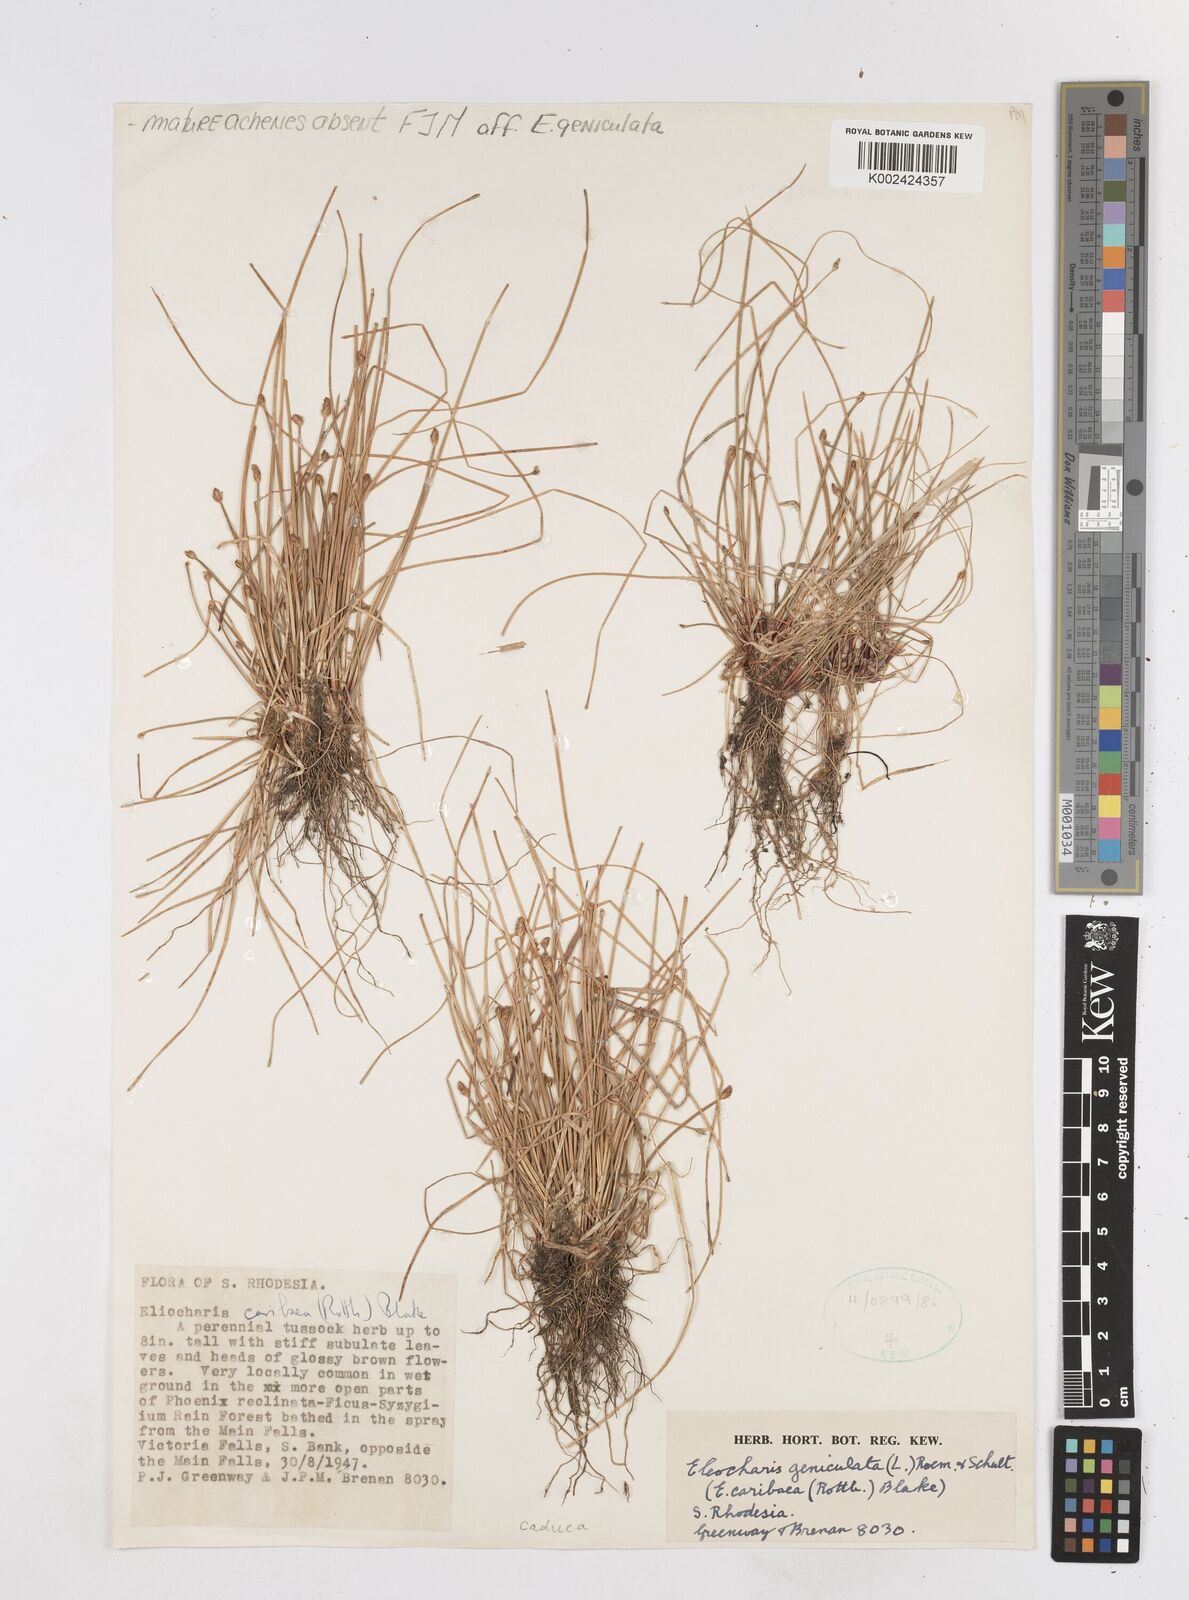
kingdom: Plantae
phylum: Tracheophyta
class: Liliopsida
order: Poales
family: Cyperaceae
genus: Eleocharis
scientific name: Eleocharis geniculata
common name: Canada spikesedge
